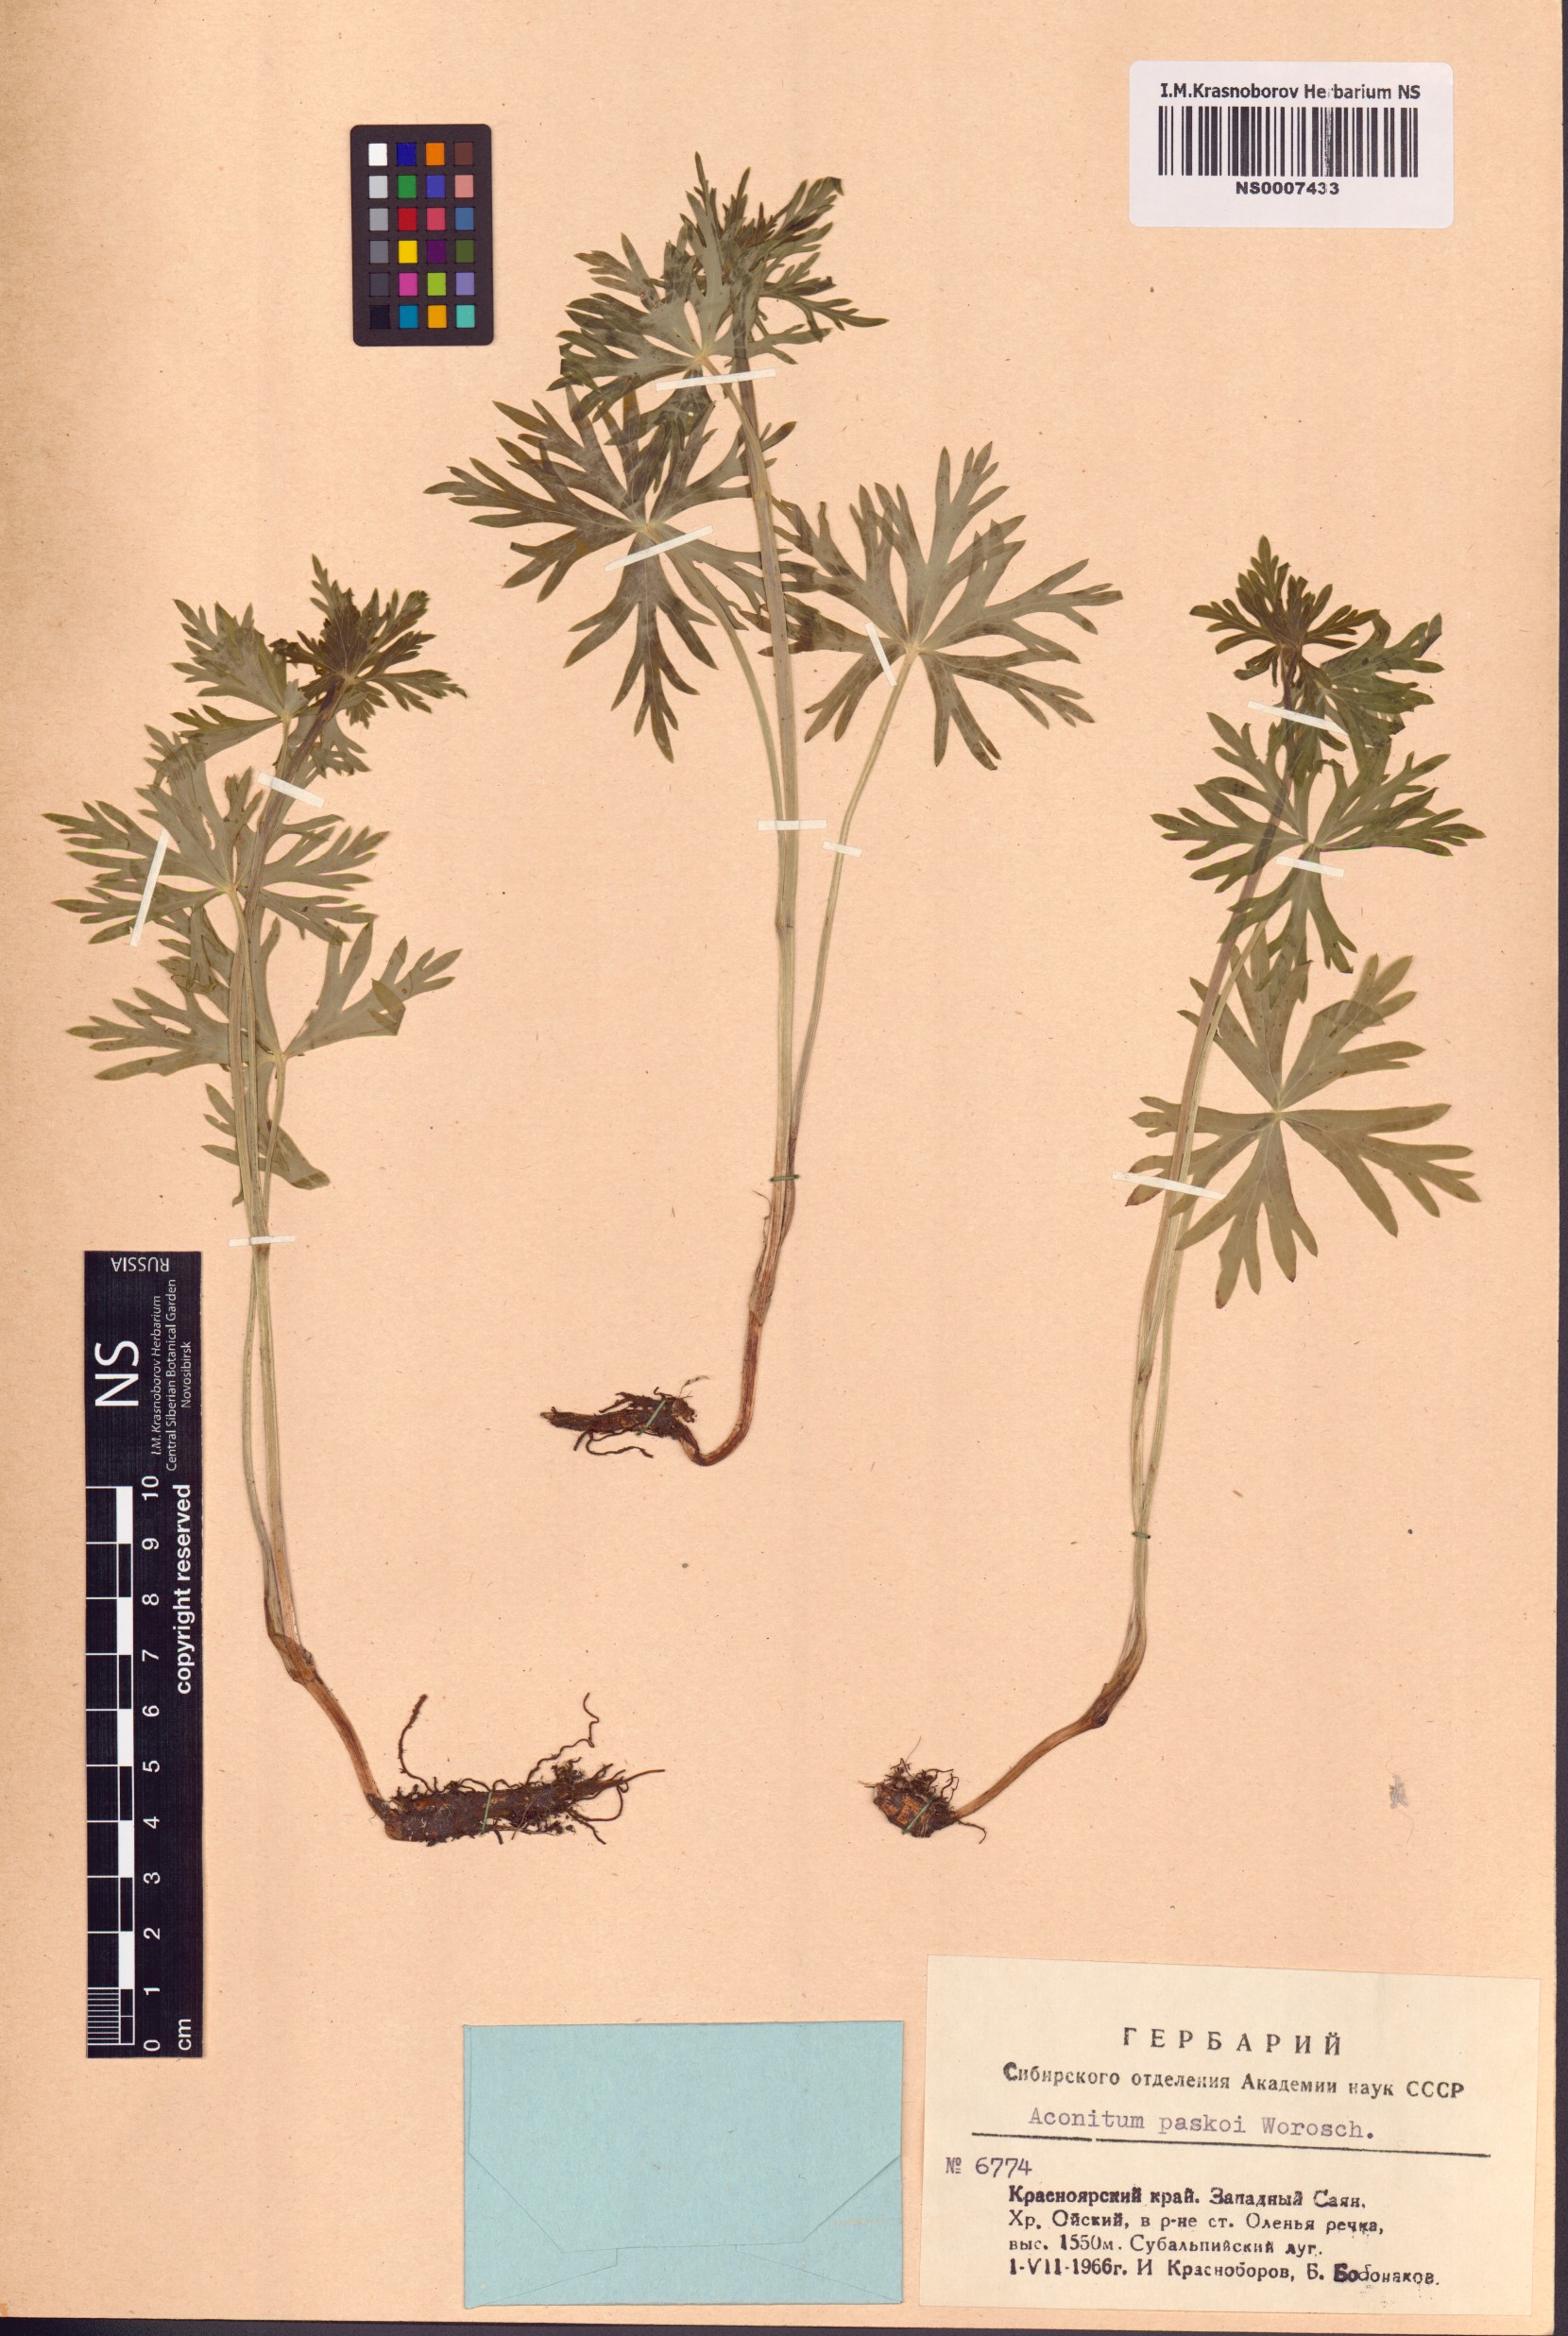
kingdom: Plantae
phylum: Tracheophyta
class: Magnoliopsida
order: Ranunculales
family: Ranunculaceae
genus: Aconitum
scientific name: Aconitum pascoi
